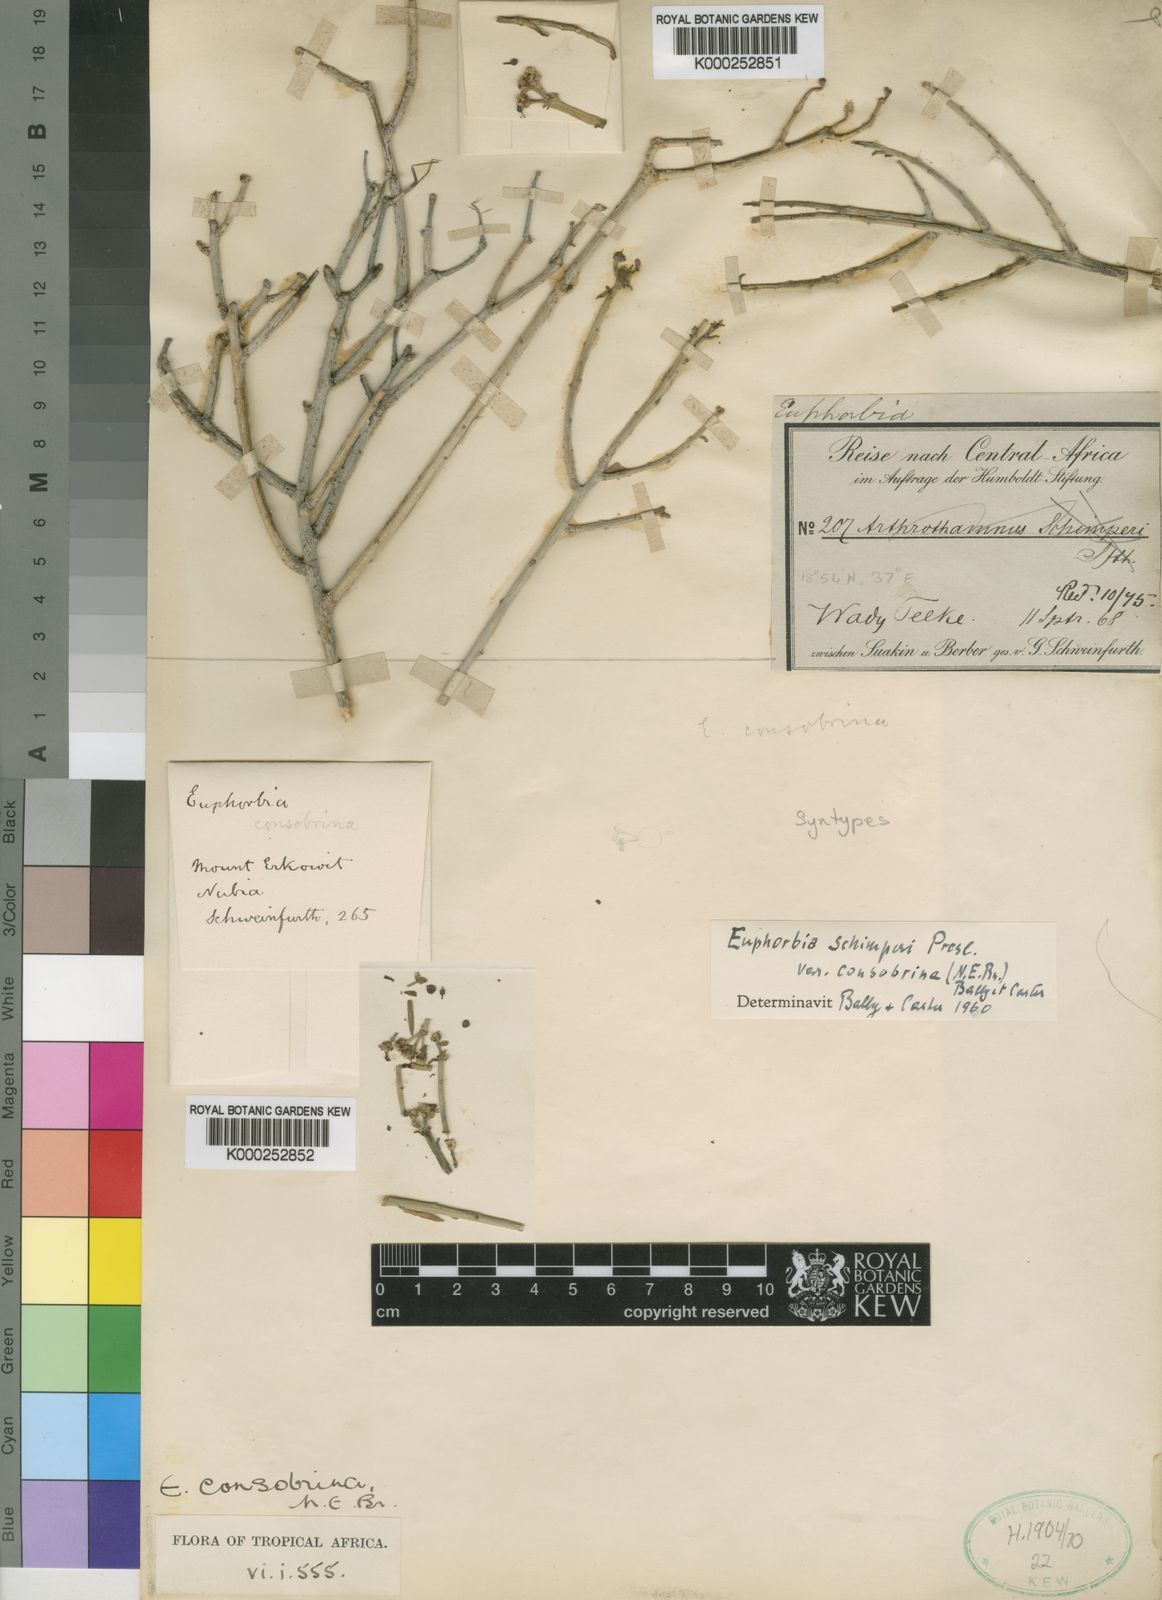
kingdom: Plantae
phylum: Tracheophyta
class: Magnoliopsida
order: Malpighiales
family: Euphorbiaceae
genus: Euphorbia
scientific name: Euphorbia nubica
